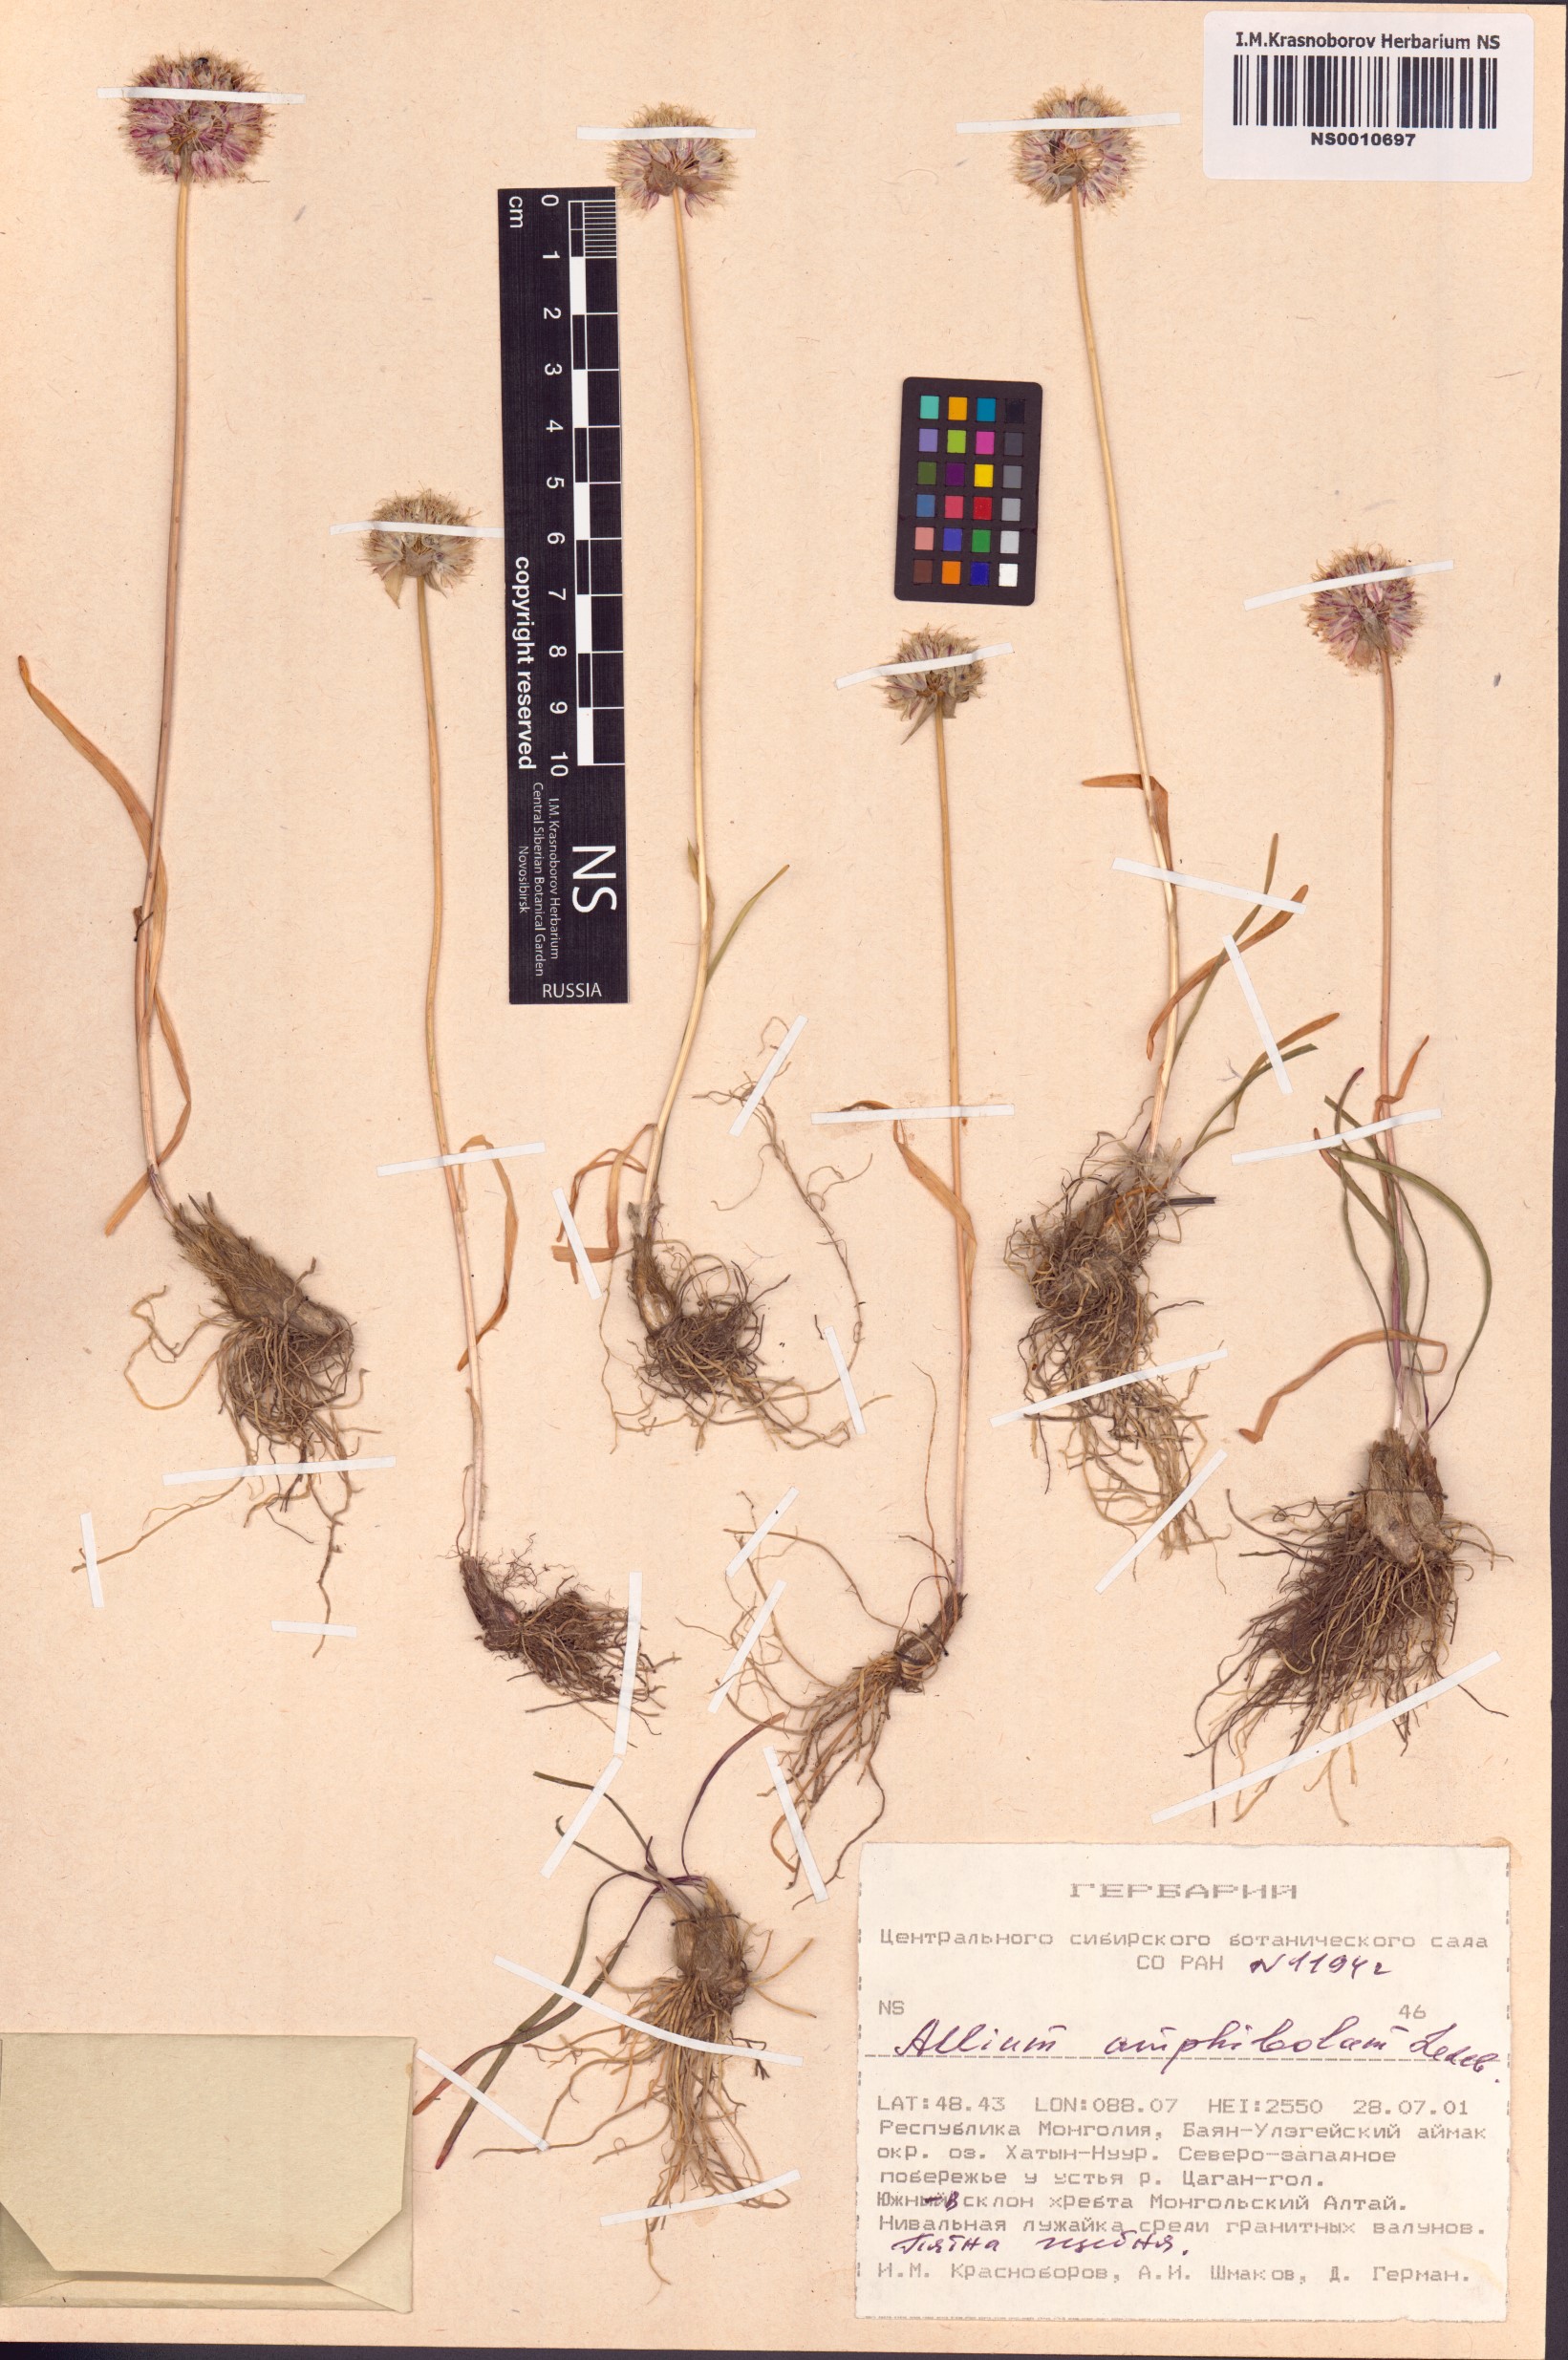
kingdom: Plantae
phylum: Tracheophyta
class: Liliopsida
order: Asparagales
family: Amaryllidaceae
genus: Allium
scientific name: Allium amphibolum
